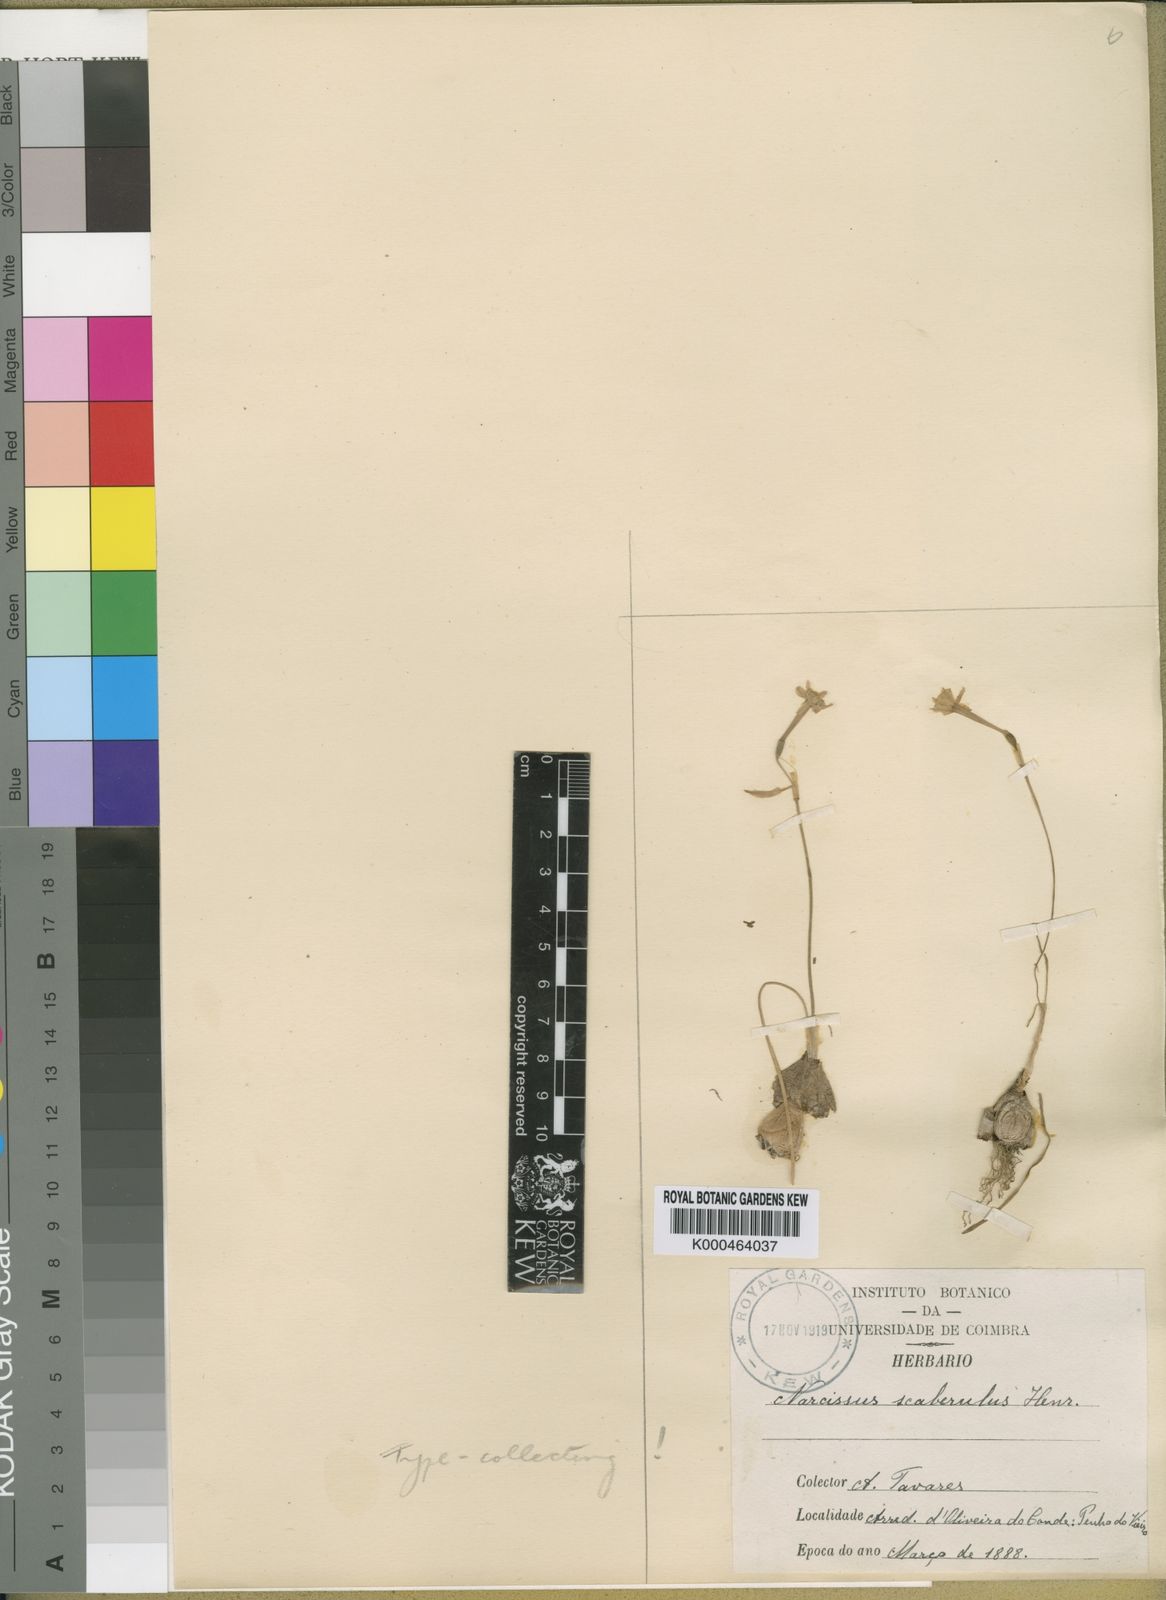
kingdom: Plantae
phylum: Tracheophyta
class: Liliopsida
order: Asparagales
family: Amaryllidaceae
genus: Narcissus
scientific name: Narcissus scaberulus
